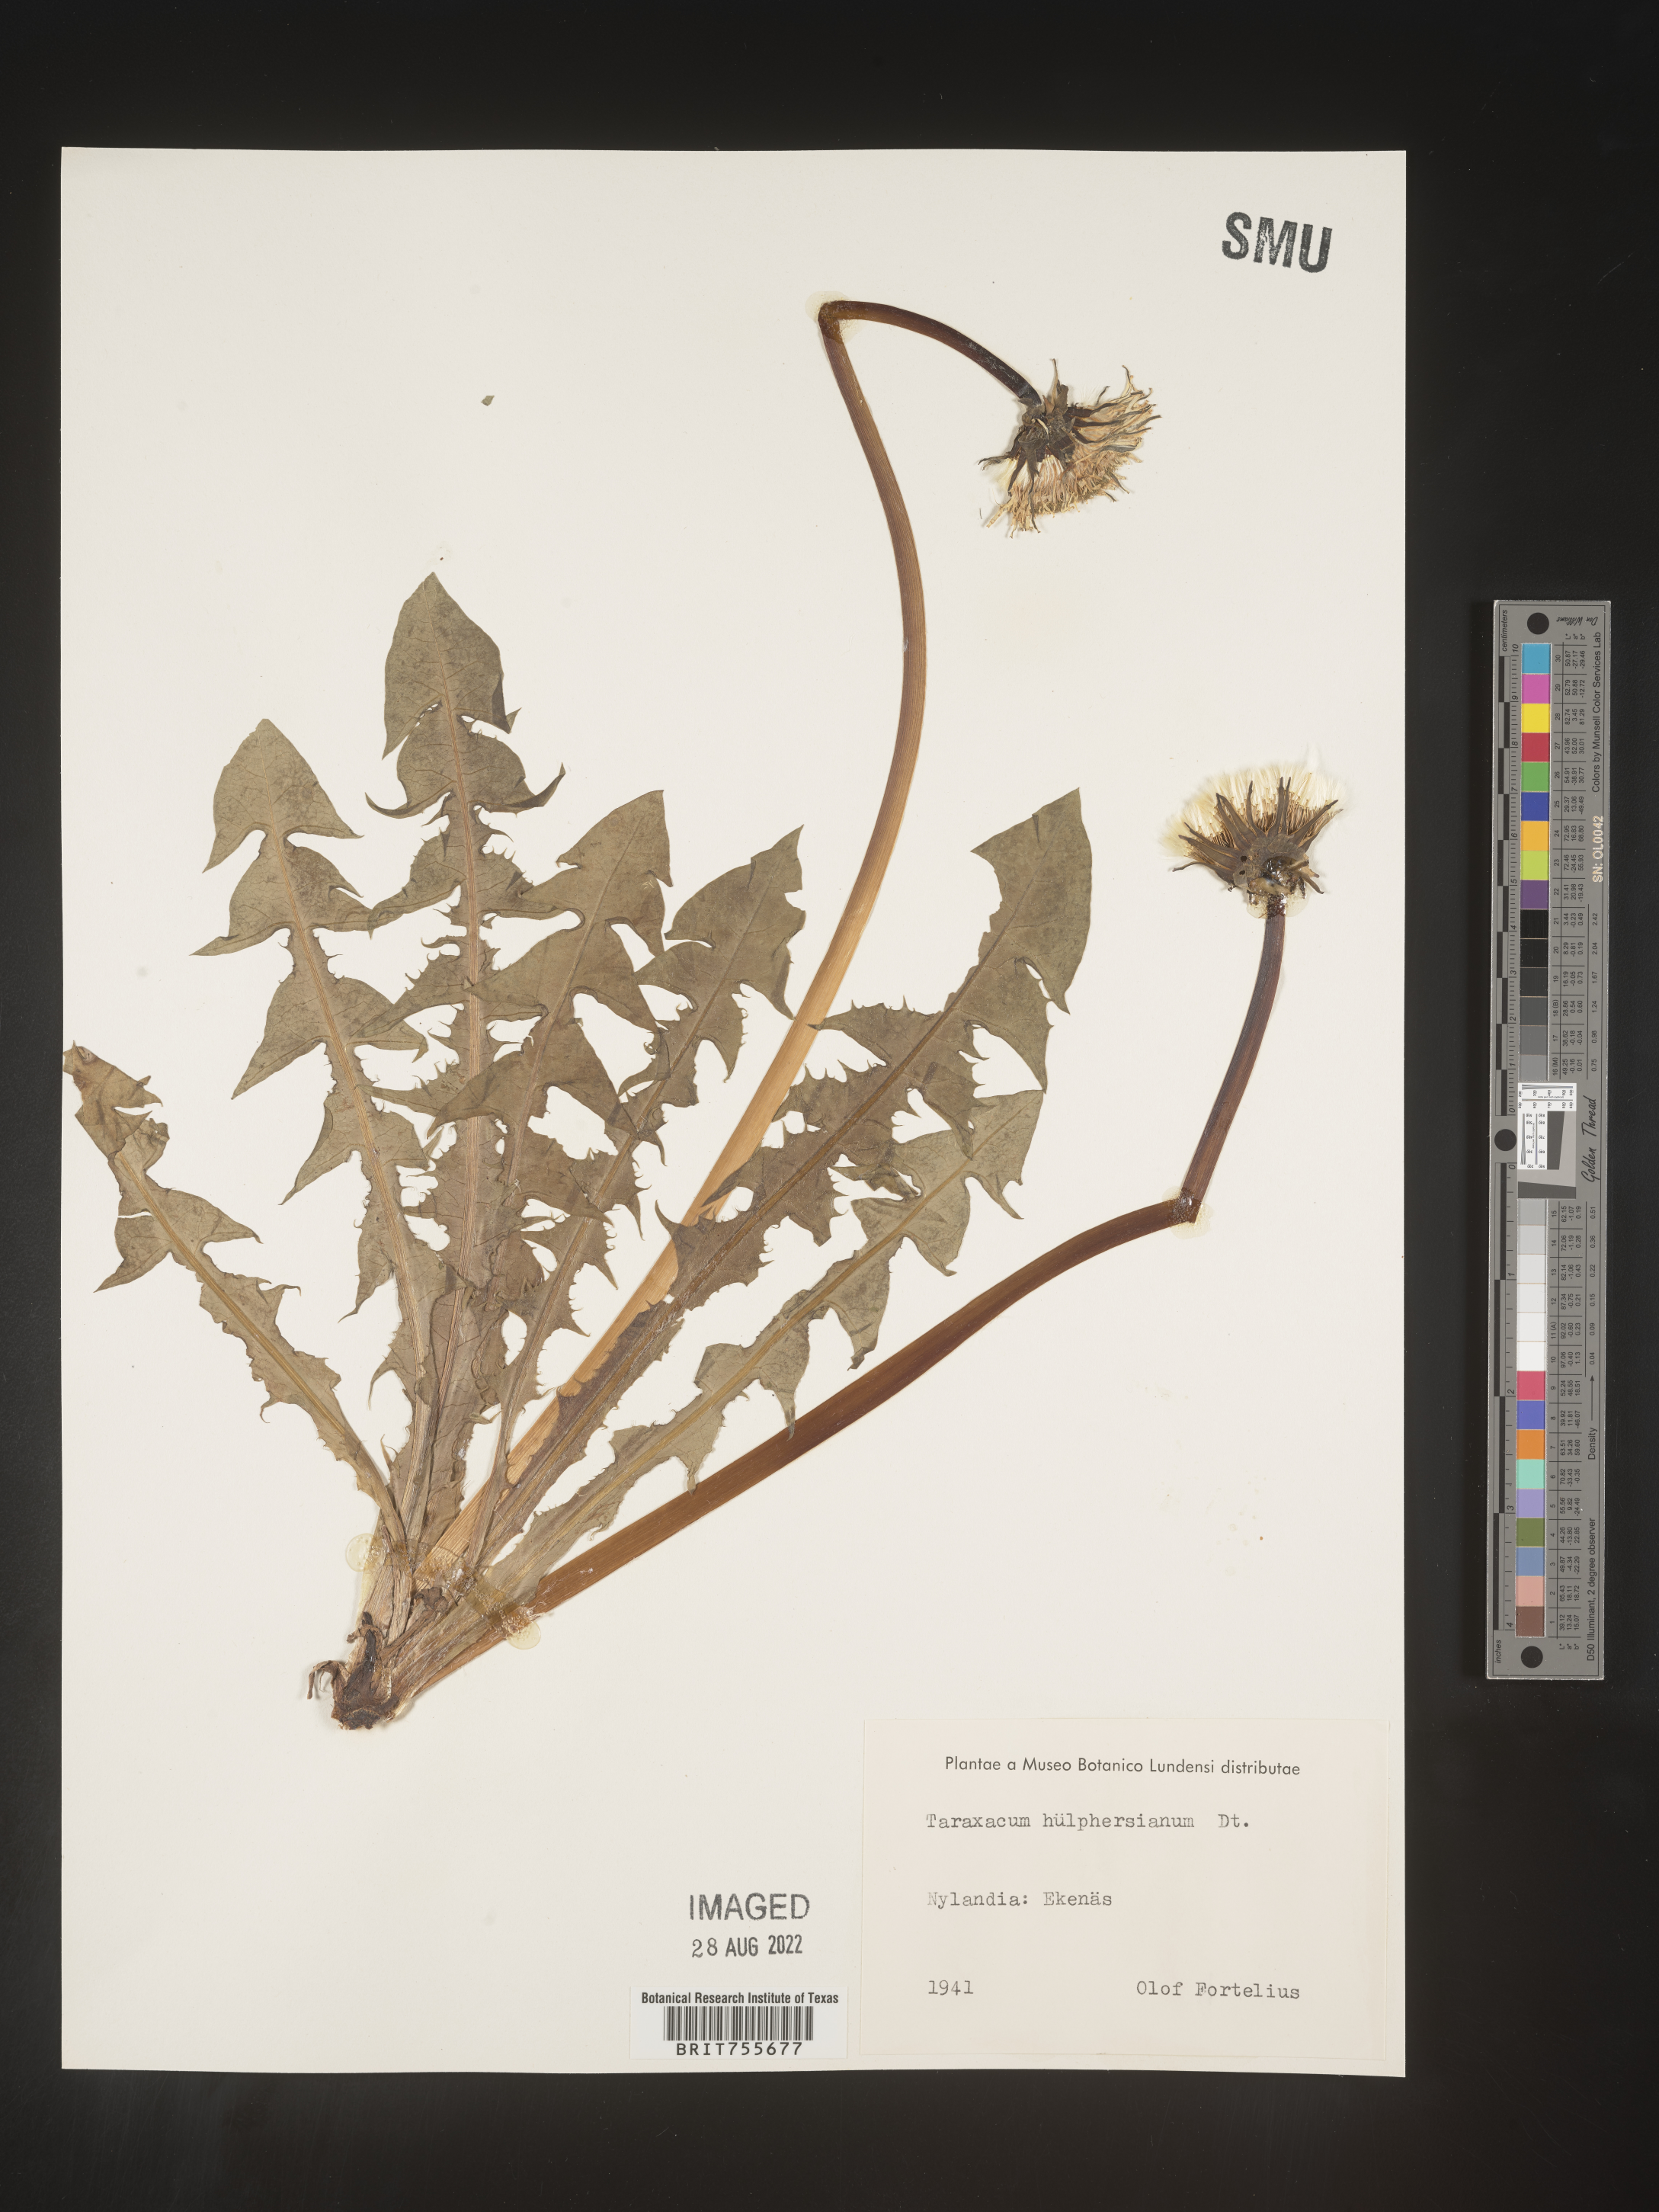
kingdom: Plantae
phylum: Tracheophyta
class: Magnoliopsida
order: Asterales
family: Asteraceae
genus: Taraxacum
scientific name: Taraxacum
